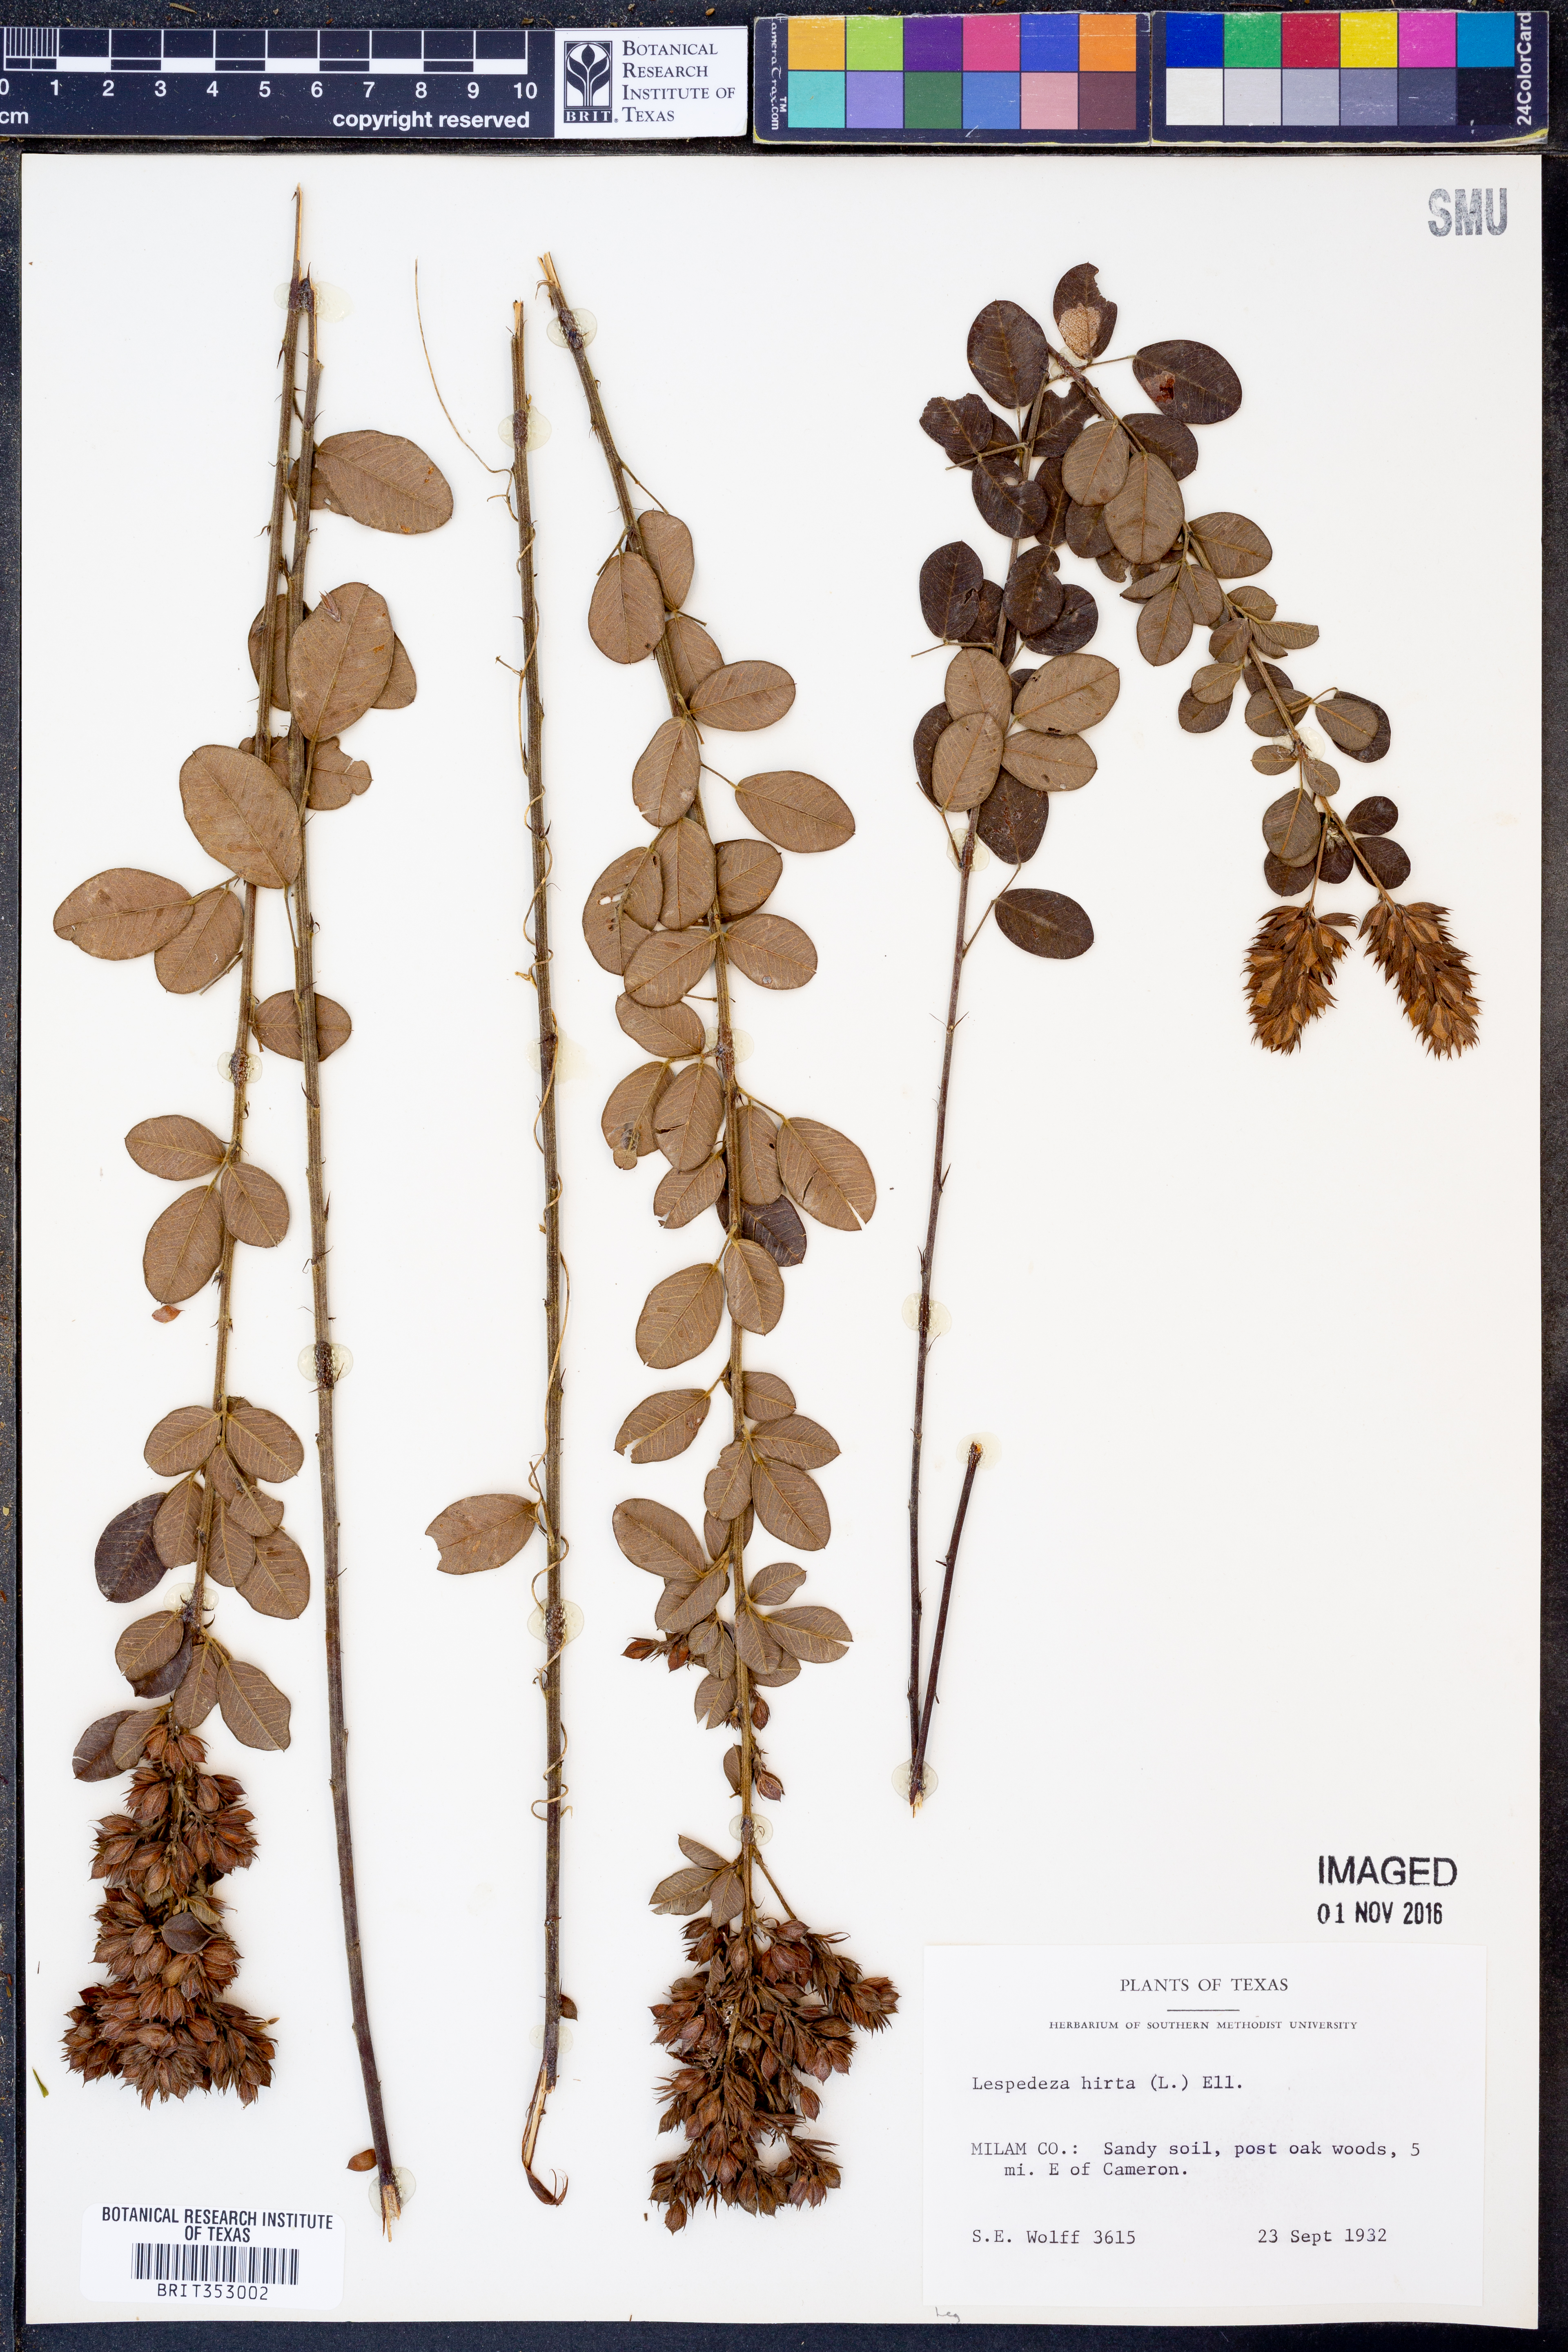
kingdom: Plantae
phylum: Tracheophyta
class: Magnoliopsida
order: Fabales
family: Fabaceae
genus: Lespedeza
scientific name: Lespedeza hirta
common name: Hairy lespedeza
